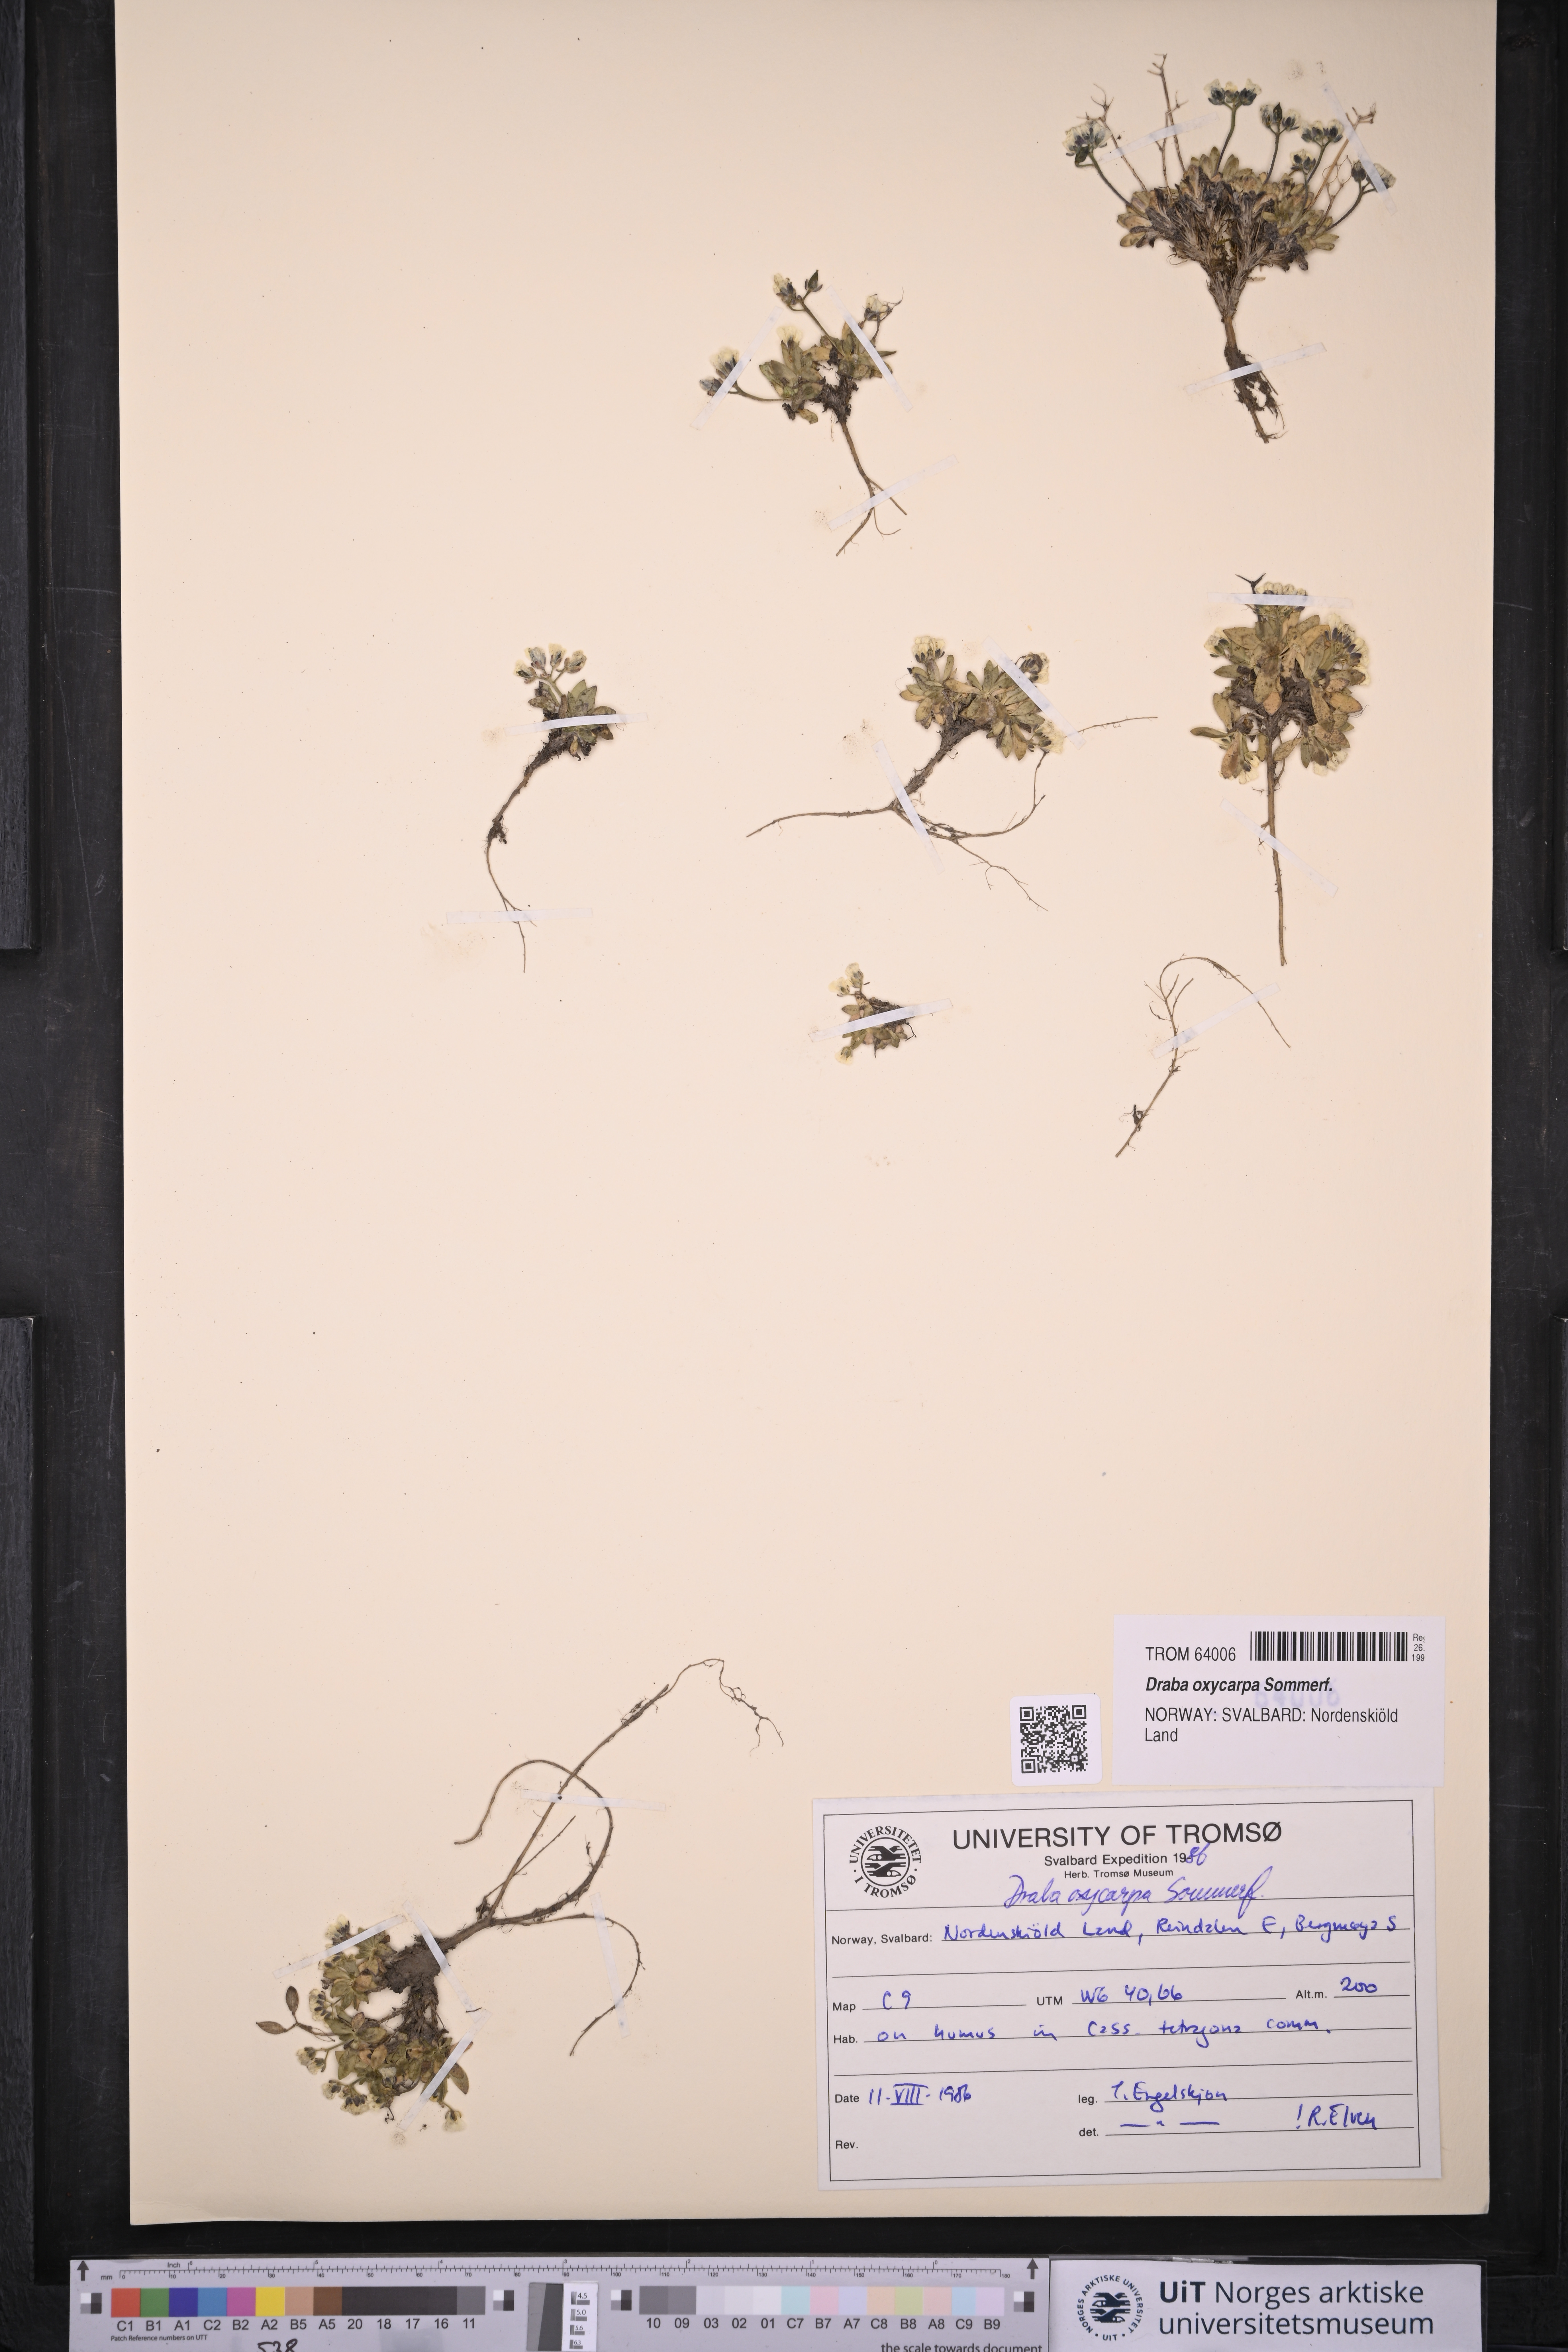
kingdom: Plantae
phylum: Tracheophyta
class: Magnoliopsida
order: Brassicales
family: Brassicaceae
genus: Draba
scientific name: Draba oxycarpa
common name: Sharp-fruited whitlow-grass
